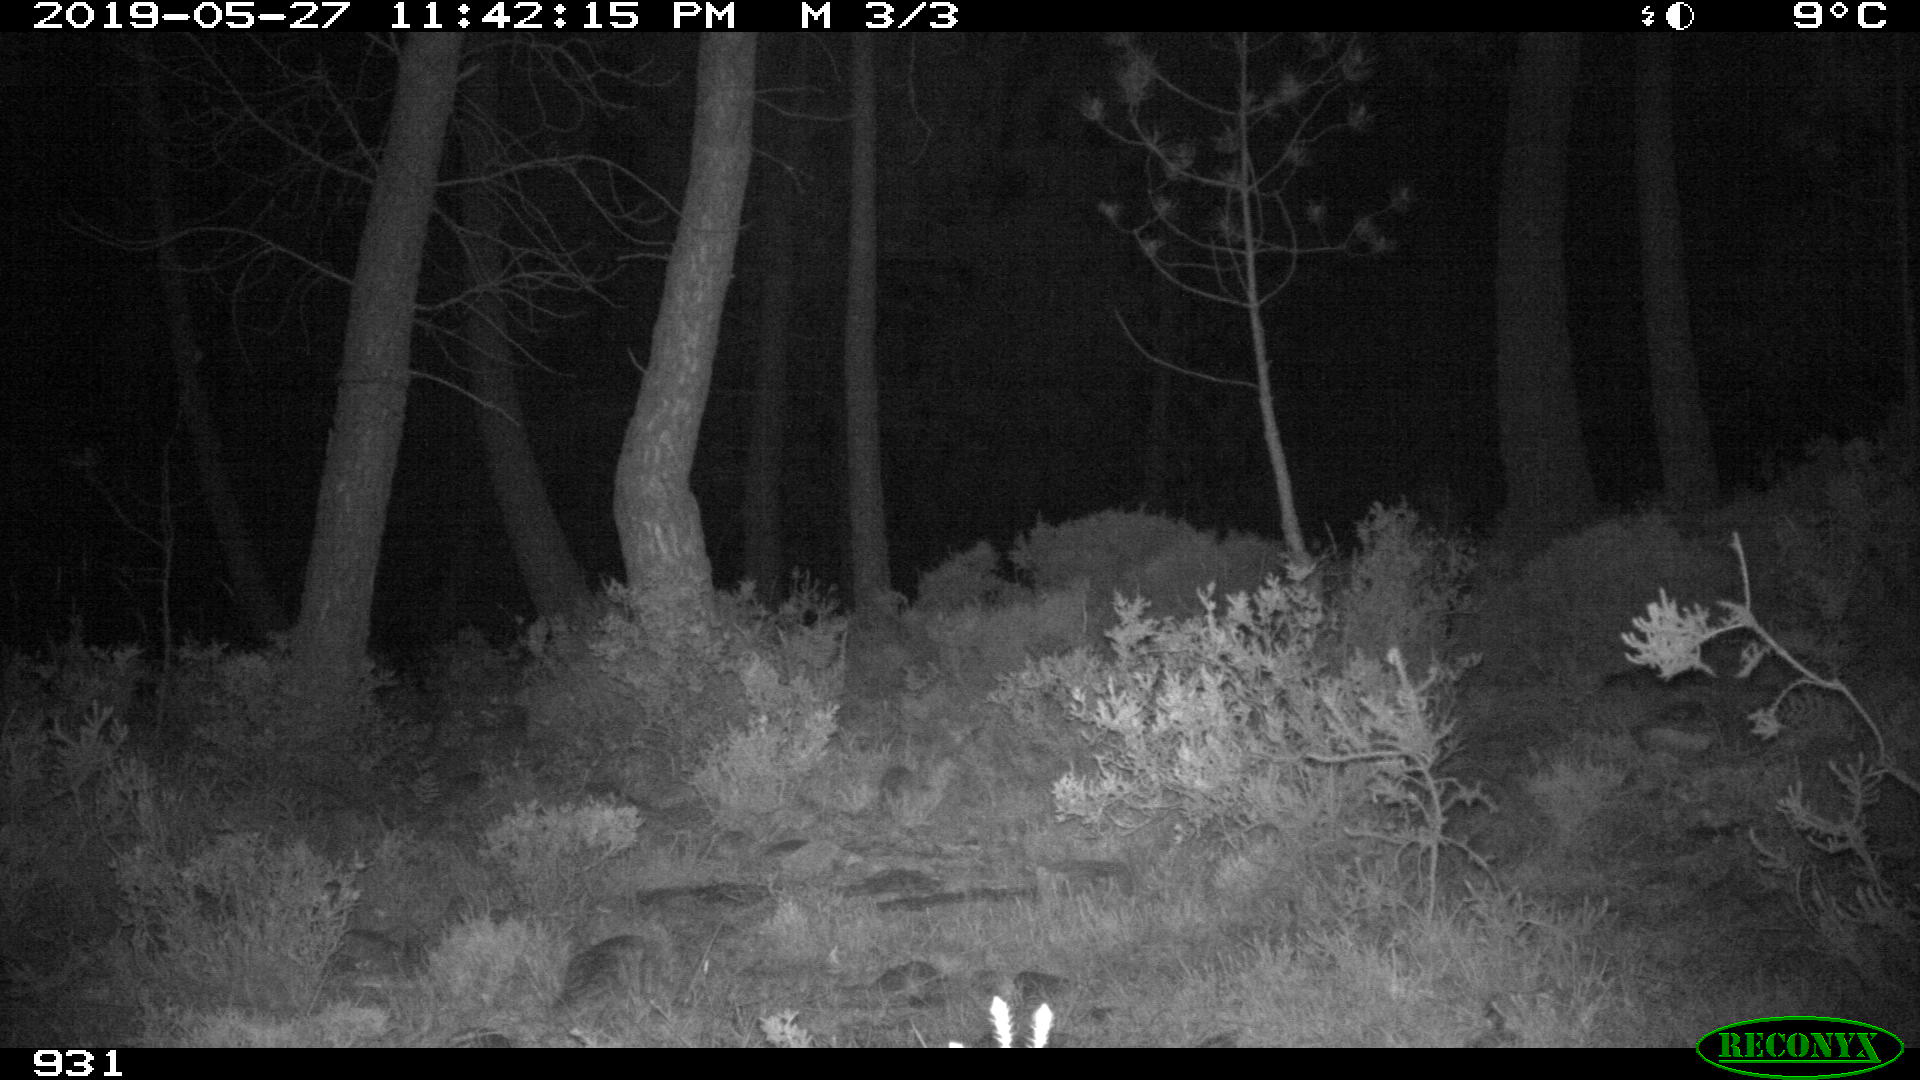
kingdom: Animalia
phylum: Chordata
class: Mammalia
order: Artiodactyla
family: Suidae
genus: Sus
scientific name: Sus scrofa
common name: Wild boar
